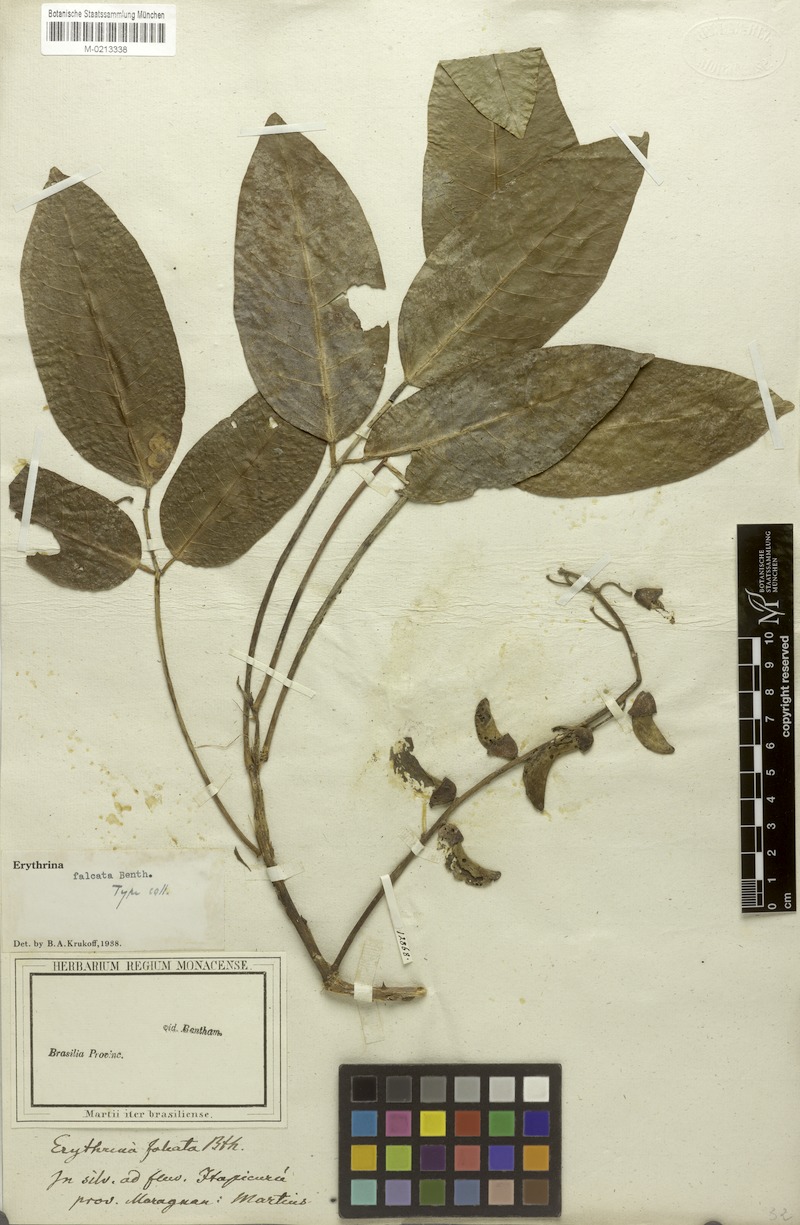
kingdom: Plantae
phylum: Tracheophyta
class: Magnoliopsida
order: Fabales
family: Fabaceae
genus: Erythrina
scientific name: Erythrina falcata
